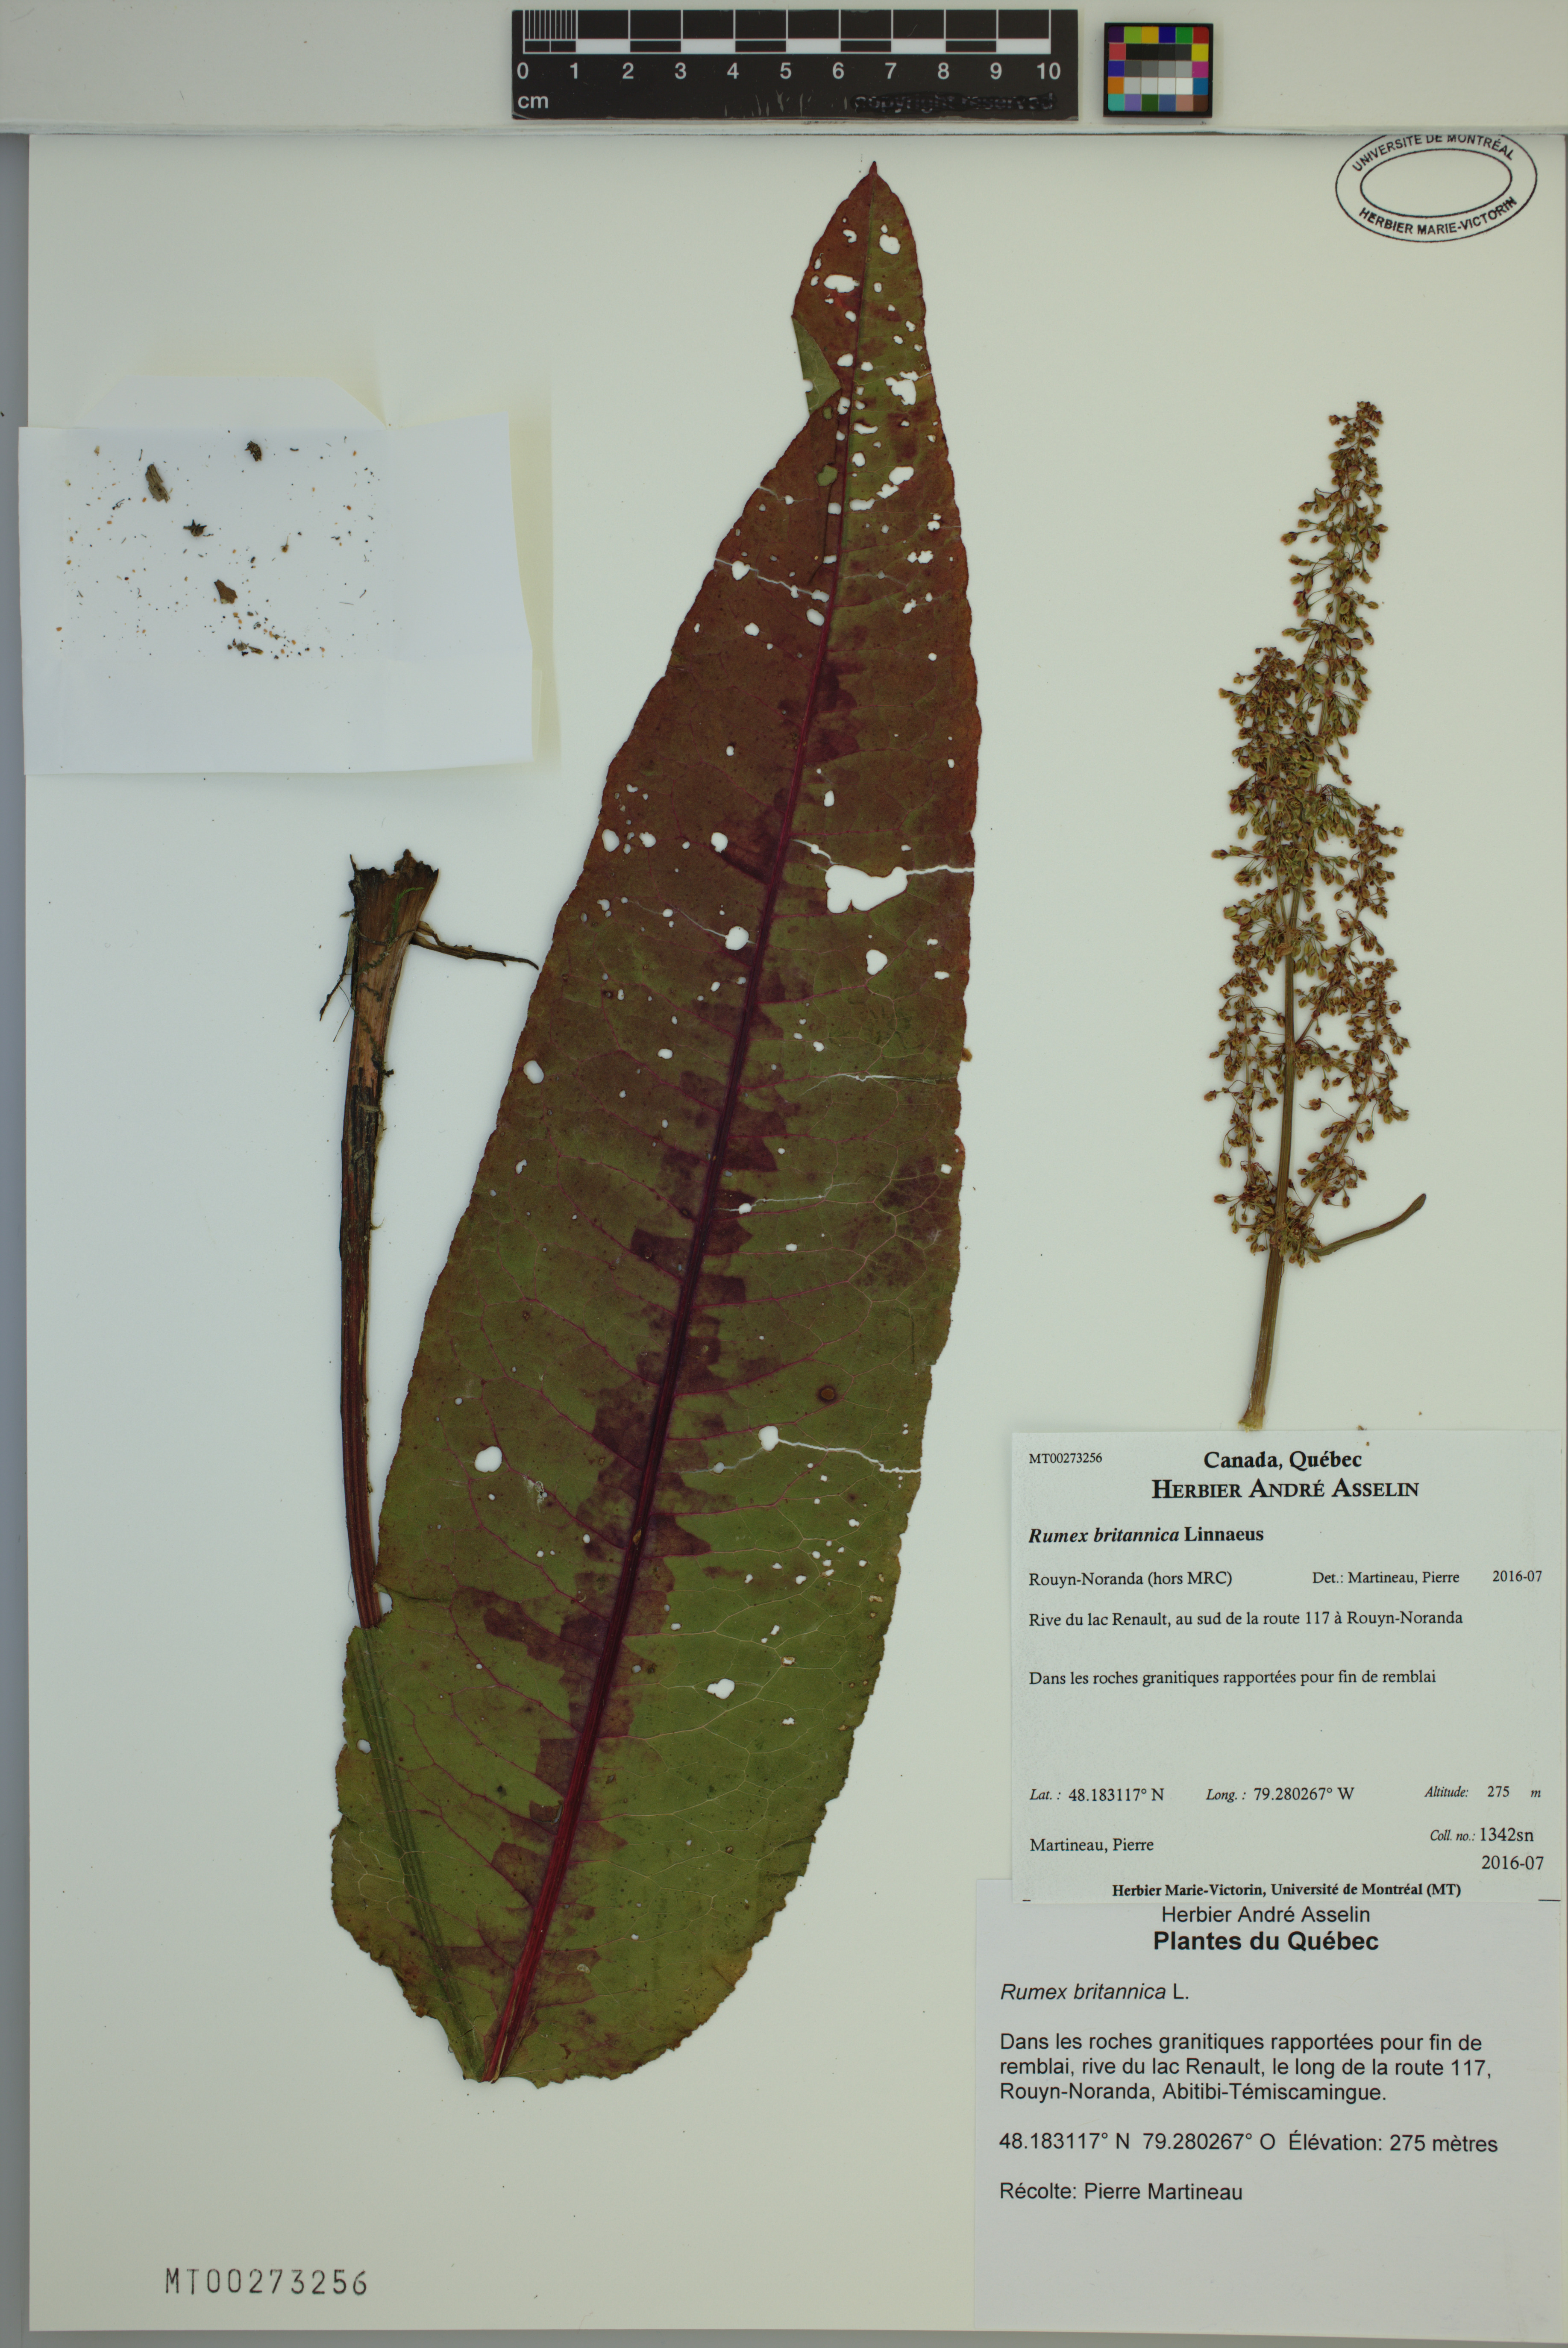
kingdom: Plantae
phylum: Tracheophyta
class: Magnoliopsida
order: Caryophyllales
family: Polygonaceae
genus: Rumex
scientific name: Rumex britannica
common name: British dock
